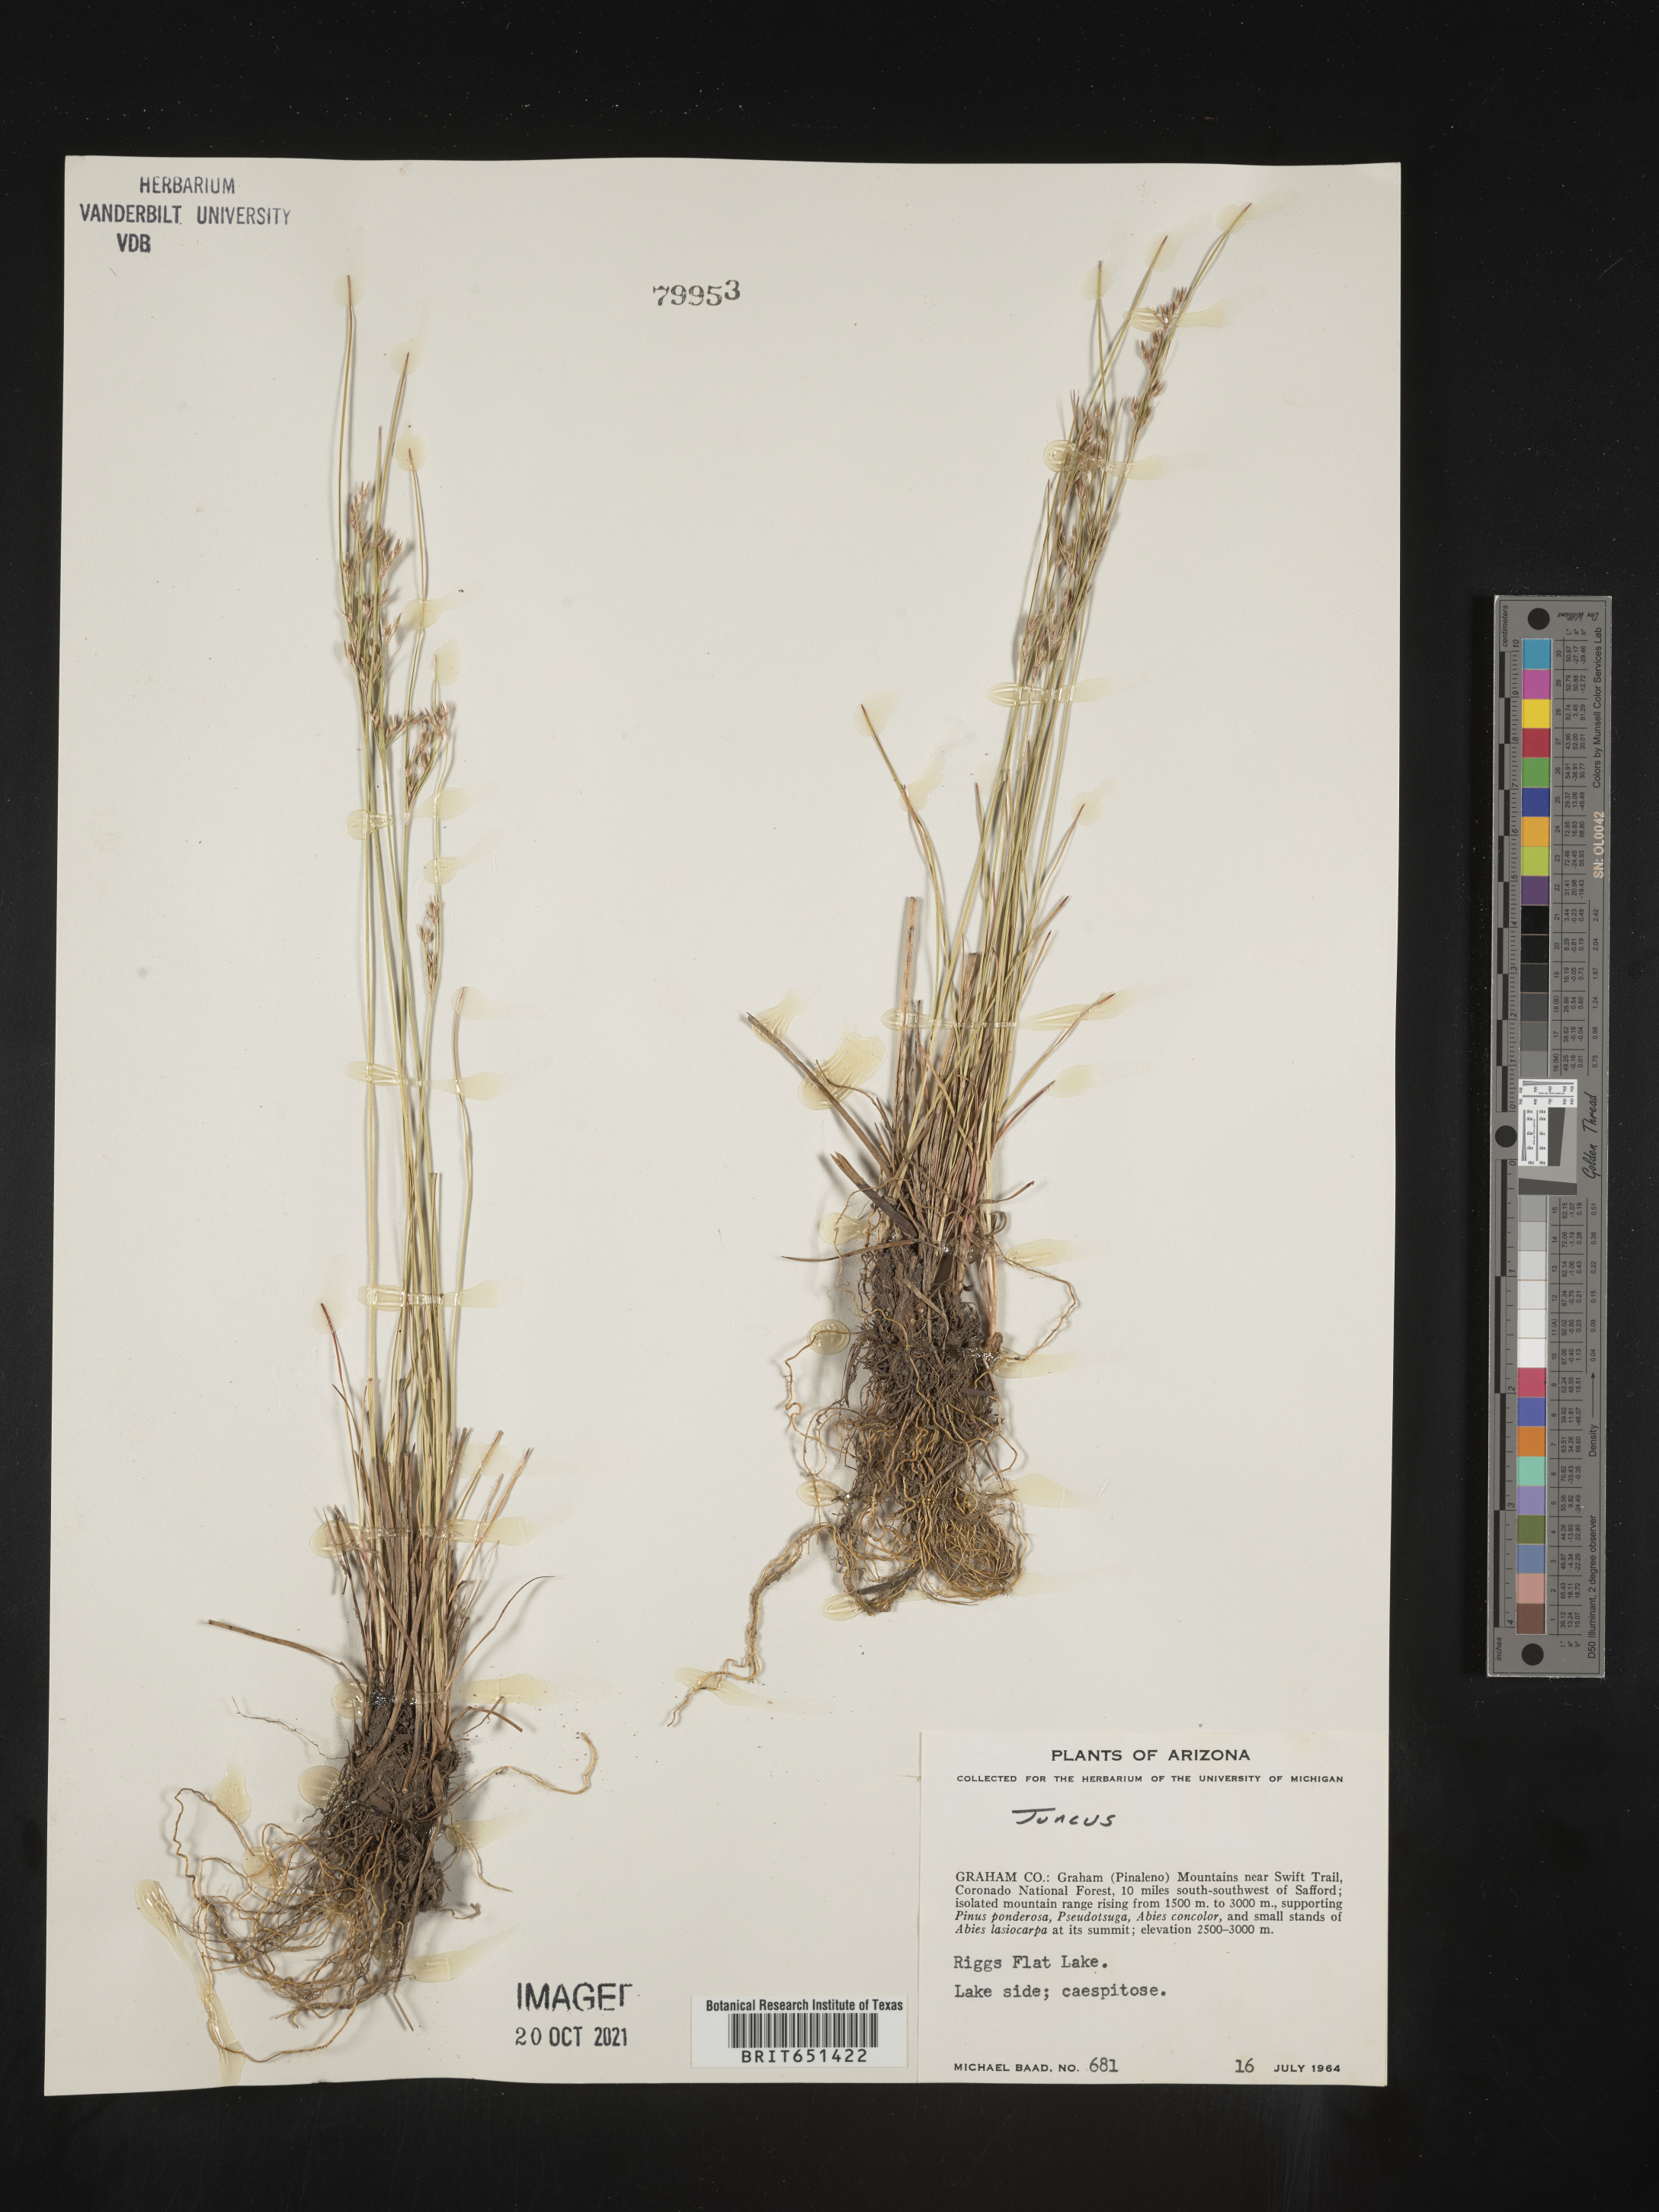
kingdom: Plantae
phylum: Tracheophyta
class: Liliopsida
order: Poales
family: Juncaceae
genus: Juncus
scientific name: Juncus
